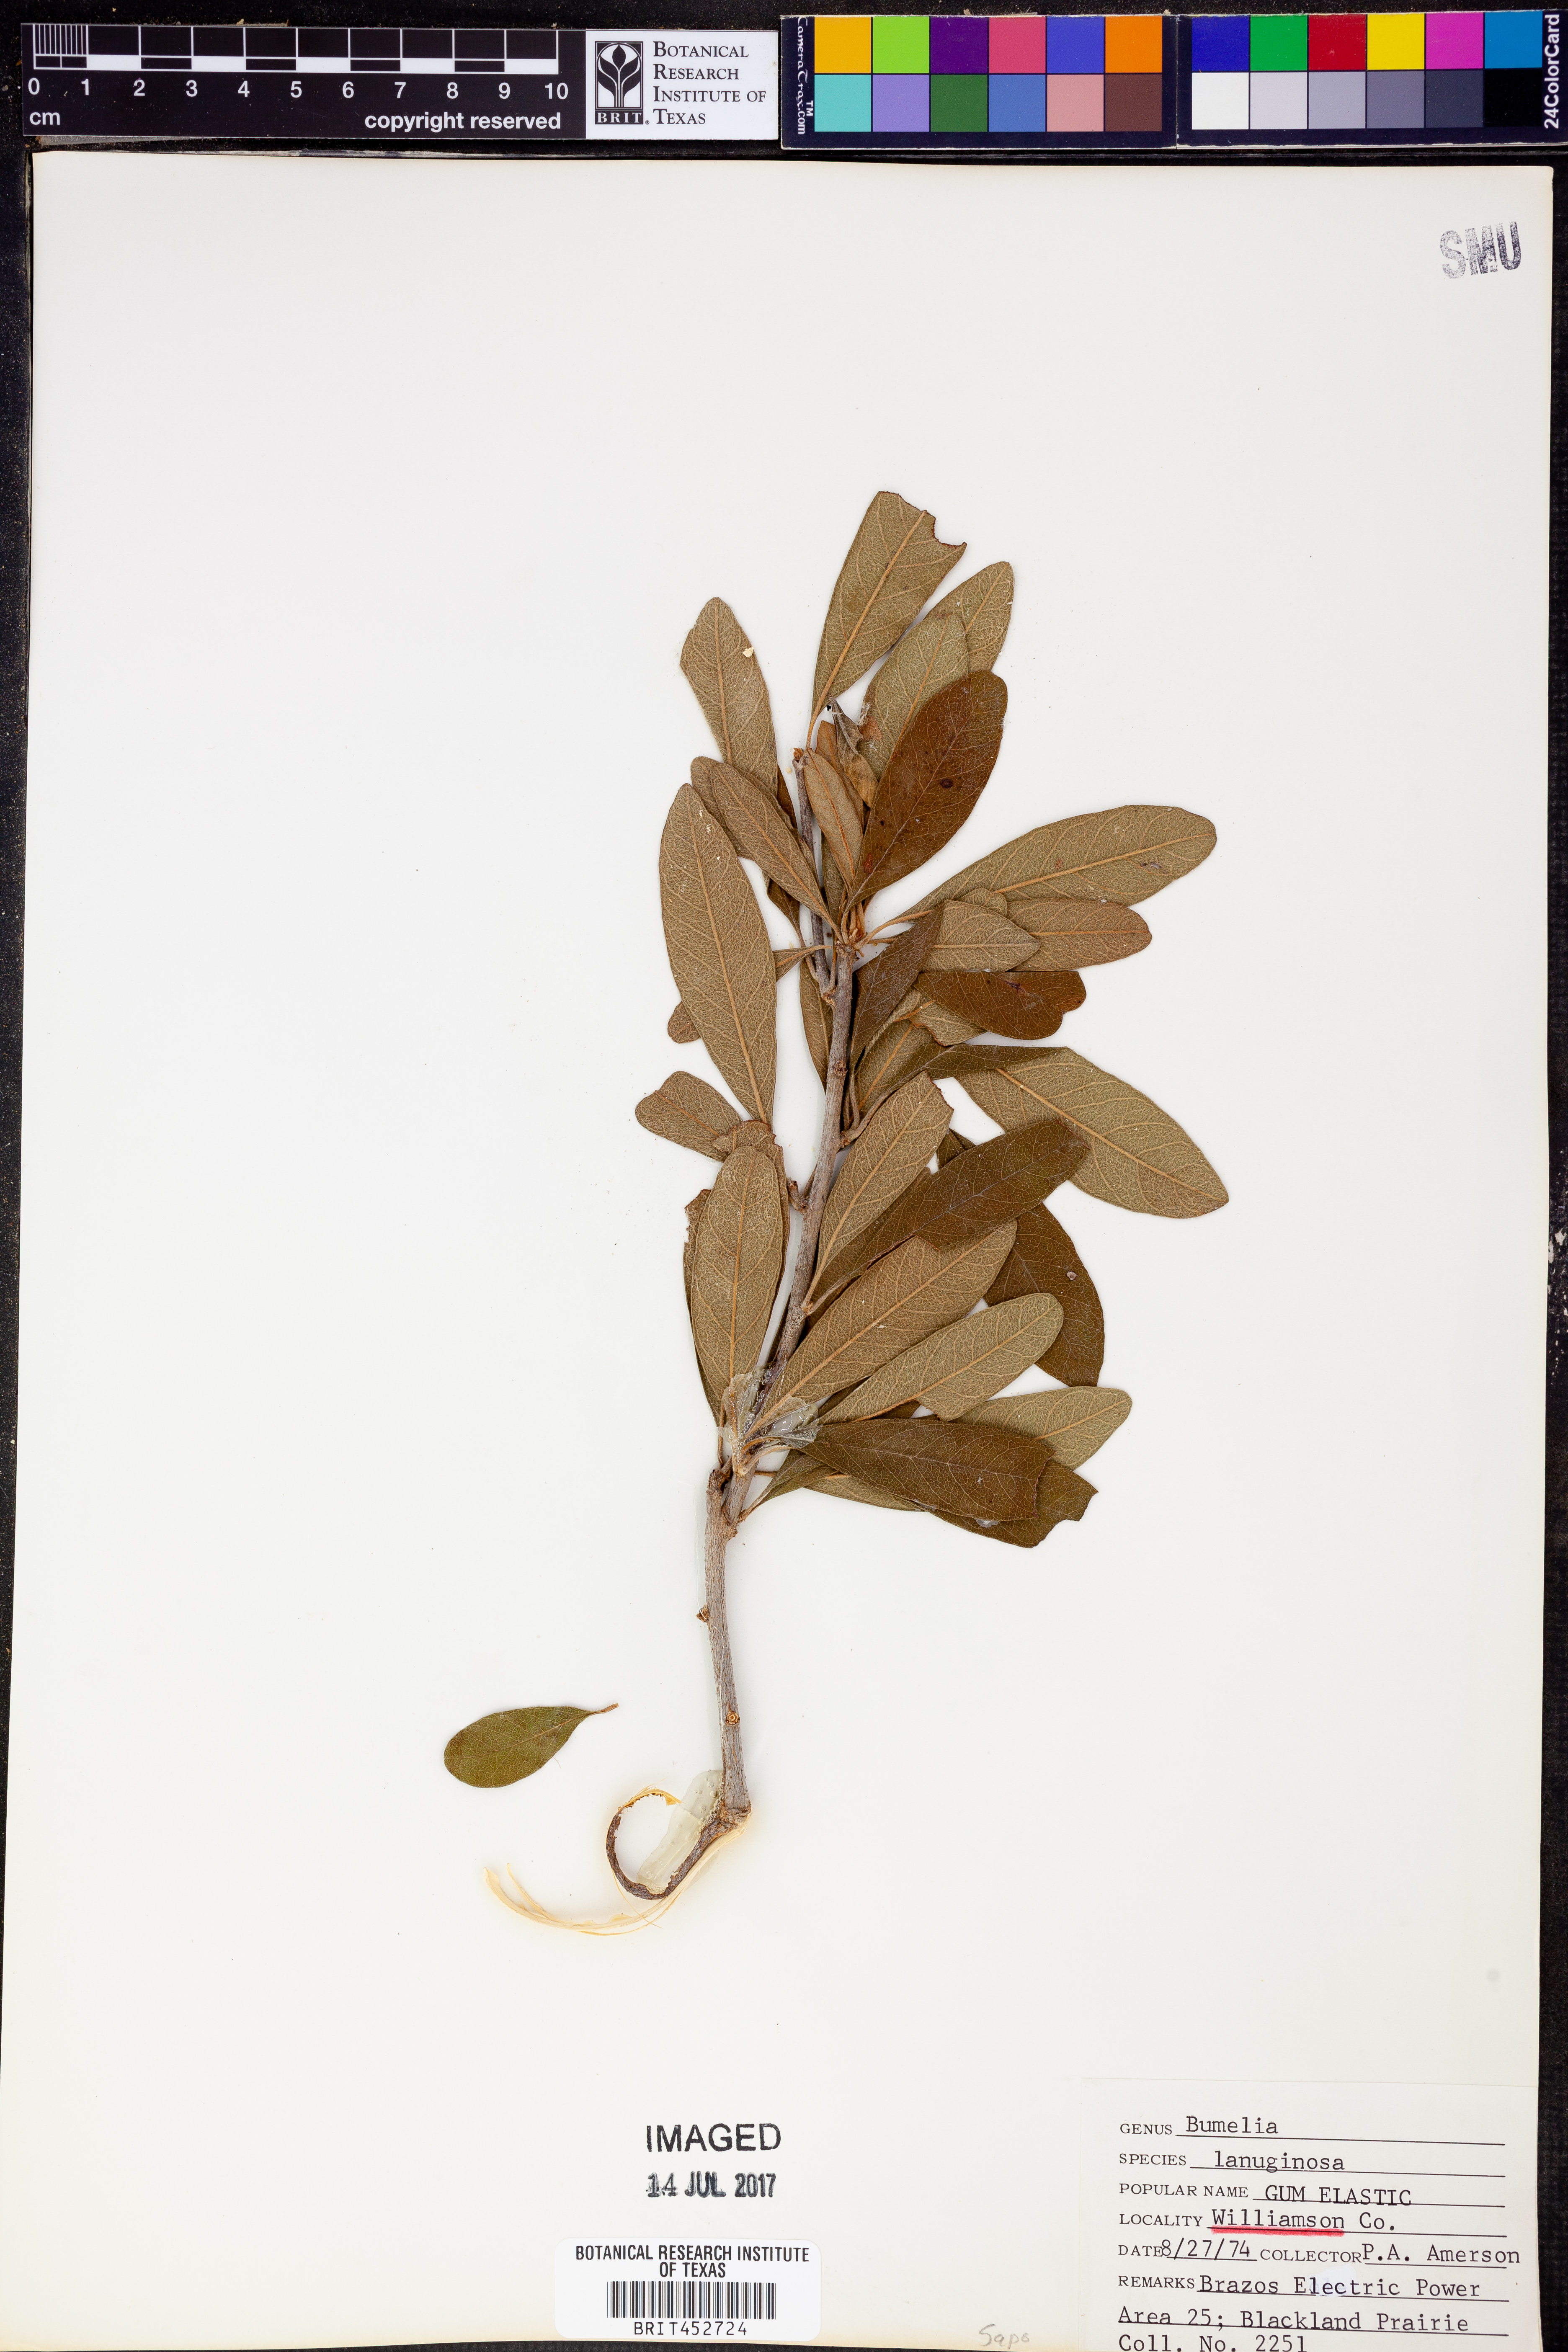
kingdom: Plantae
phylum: Tracheophyta
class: Magnoliopsida
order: Ericales
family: Sapotaceae
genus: Sideroxylon
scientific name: Sideroxylon lanuginosum
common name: Chittamwood
